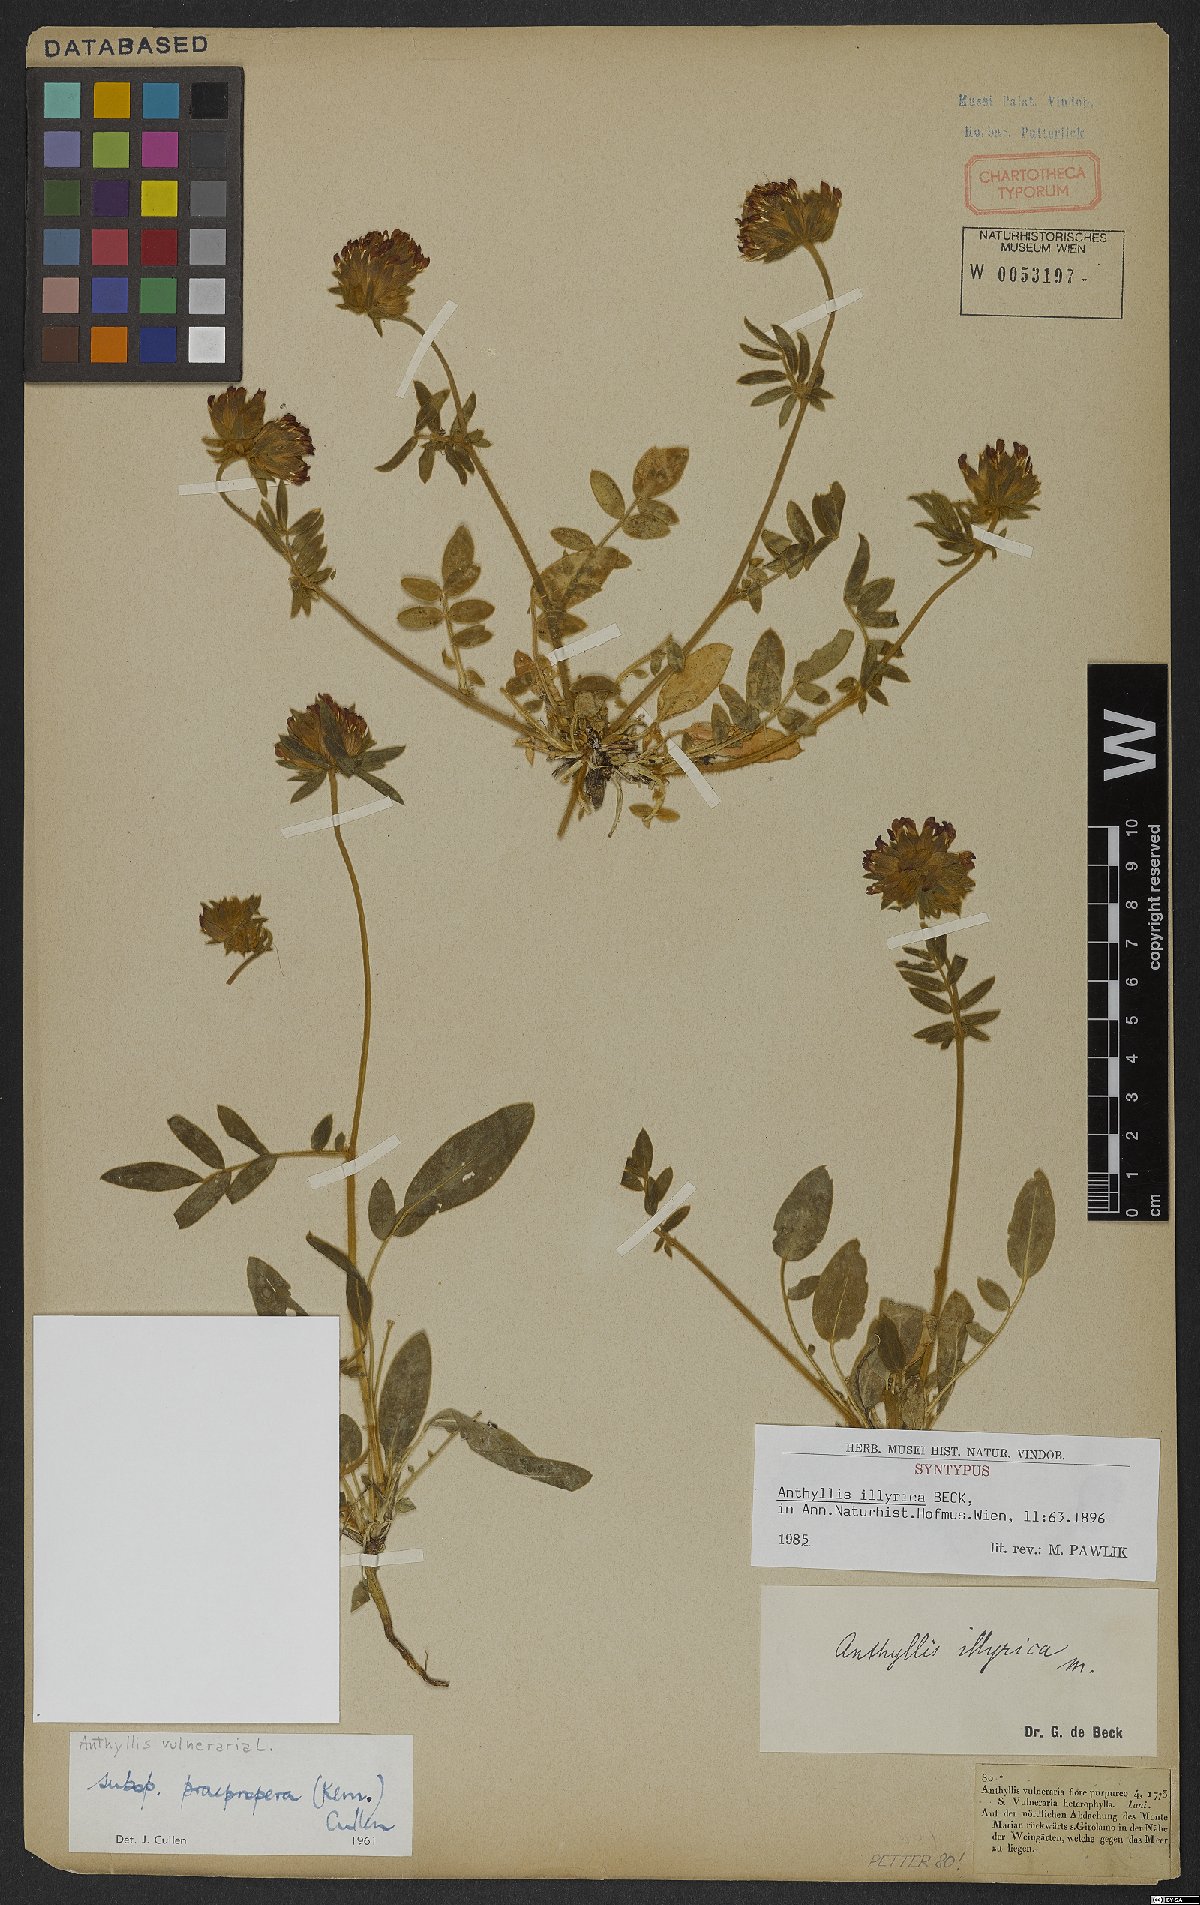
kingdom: Plantae
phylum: Tracheophyta
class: Magnoliopsida
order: Fabales
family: Fabaceae
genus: Anthyllis
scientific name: Anthyllis vulneraria
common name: Kidney vetch
